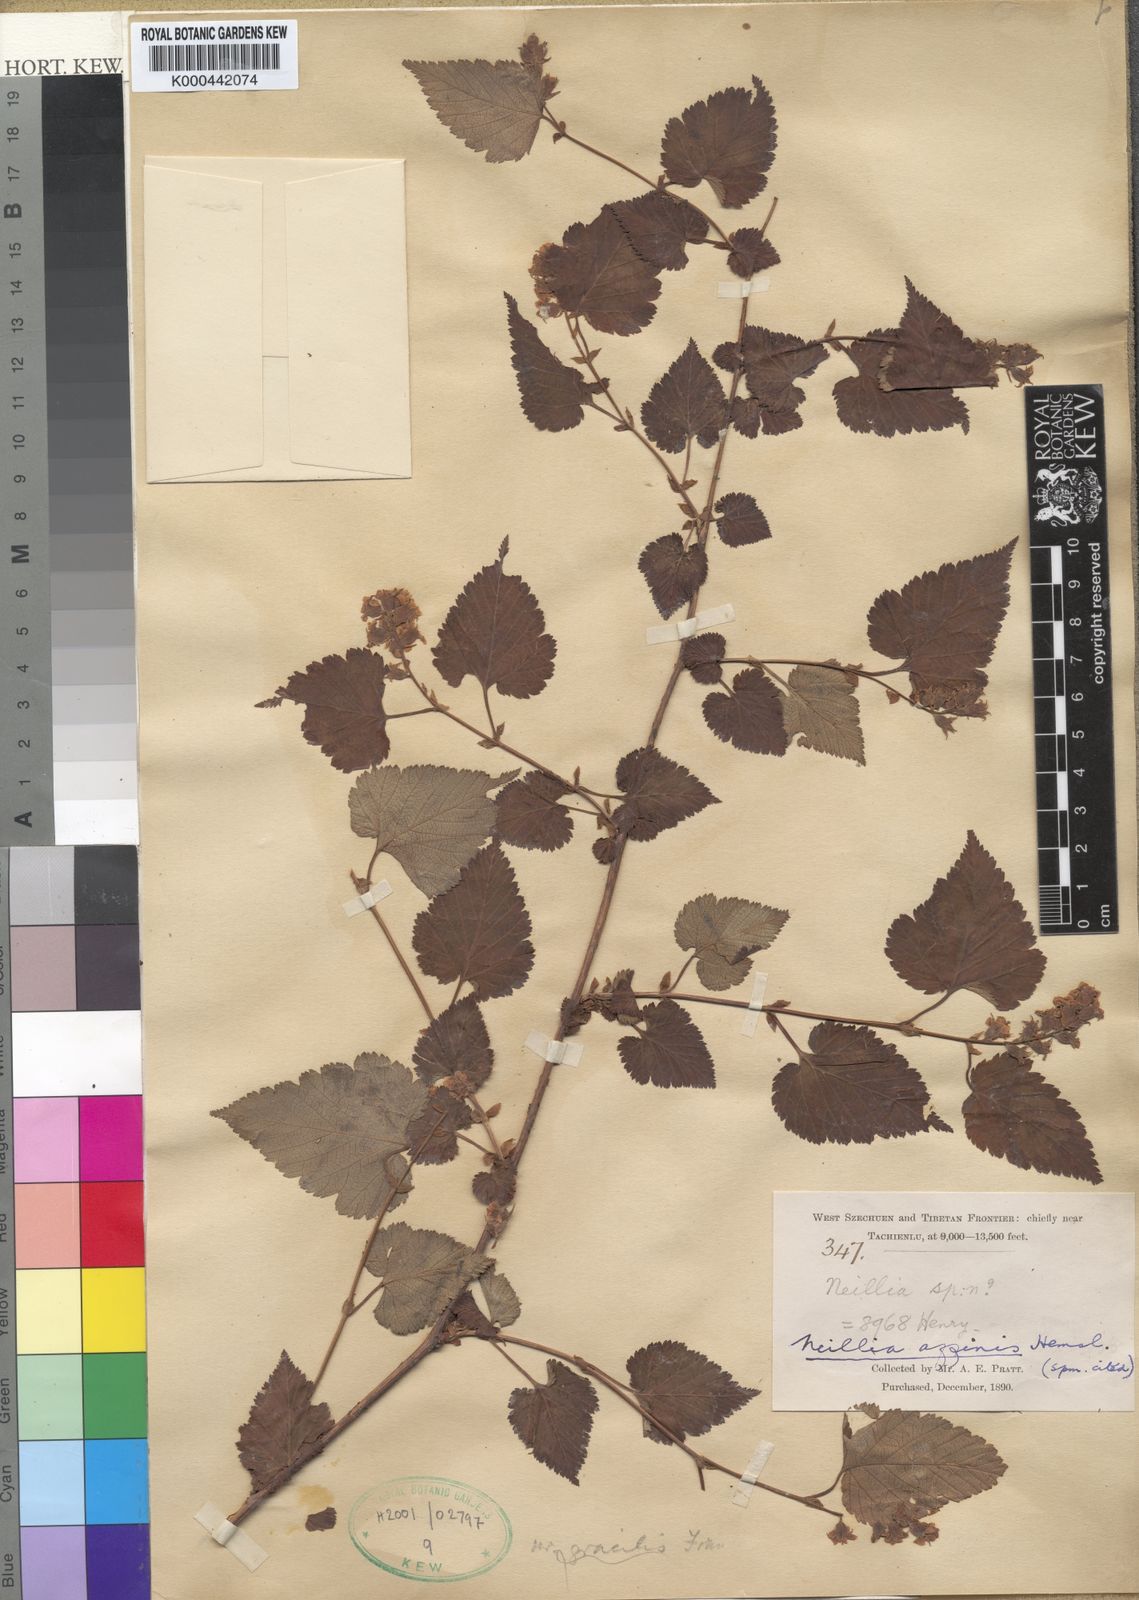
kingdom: Plantae
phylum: Tracheophyta
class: Magnoliopsida
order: Rosales
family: Rosaceae
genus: Neillia
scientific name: Neillia affinis
